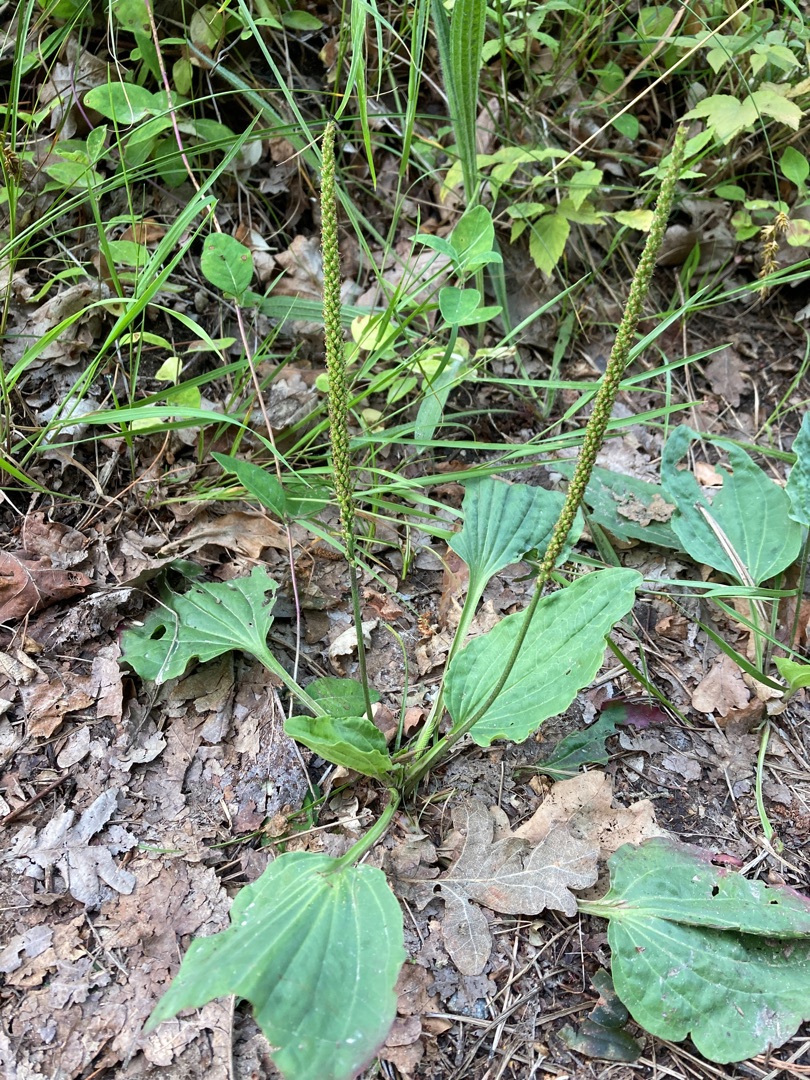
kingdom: Plantae
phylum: Tracheophyta
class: Magnoliopsida
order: Lamiales
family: Plantaginaceae
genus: Plantago
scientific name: Plantago major
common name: Glat vejbred
